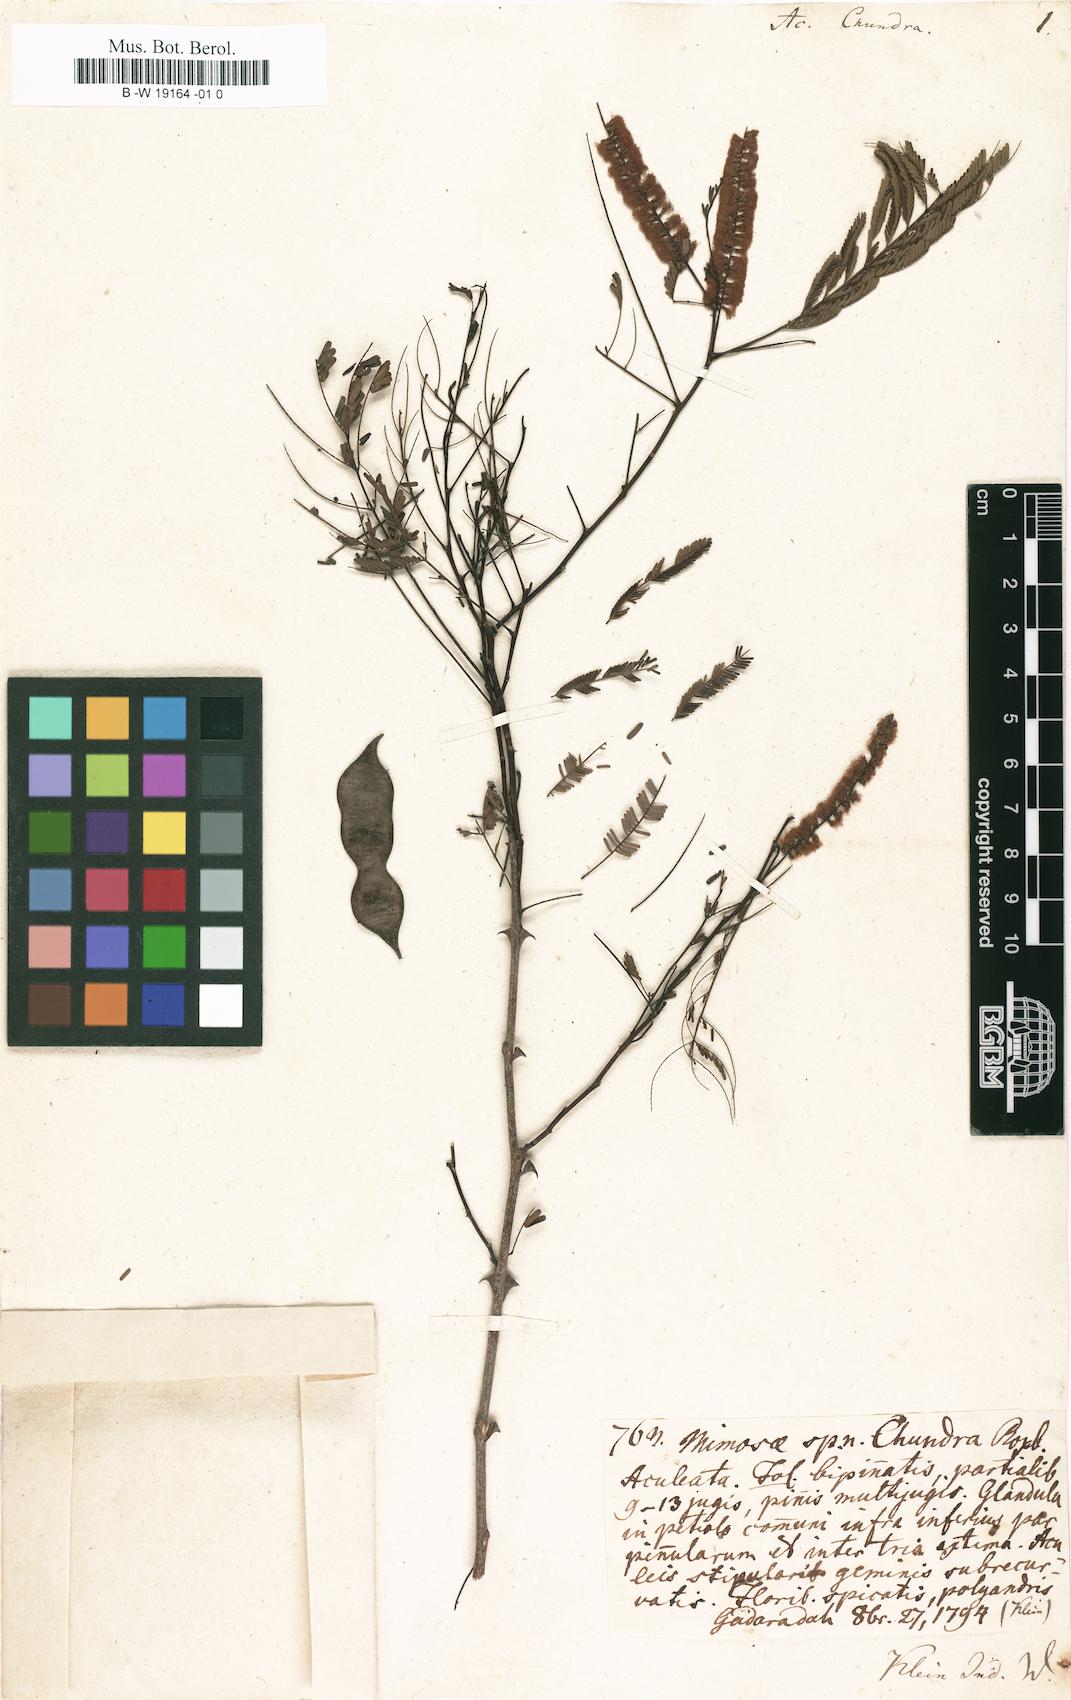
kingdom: Plantae
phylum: Tracheophyta
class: Magnoliopsida
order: Fabales
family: Fabaceae
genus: Senegalia
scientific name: Senegalia chundra
